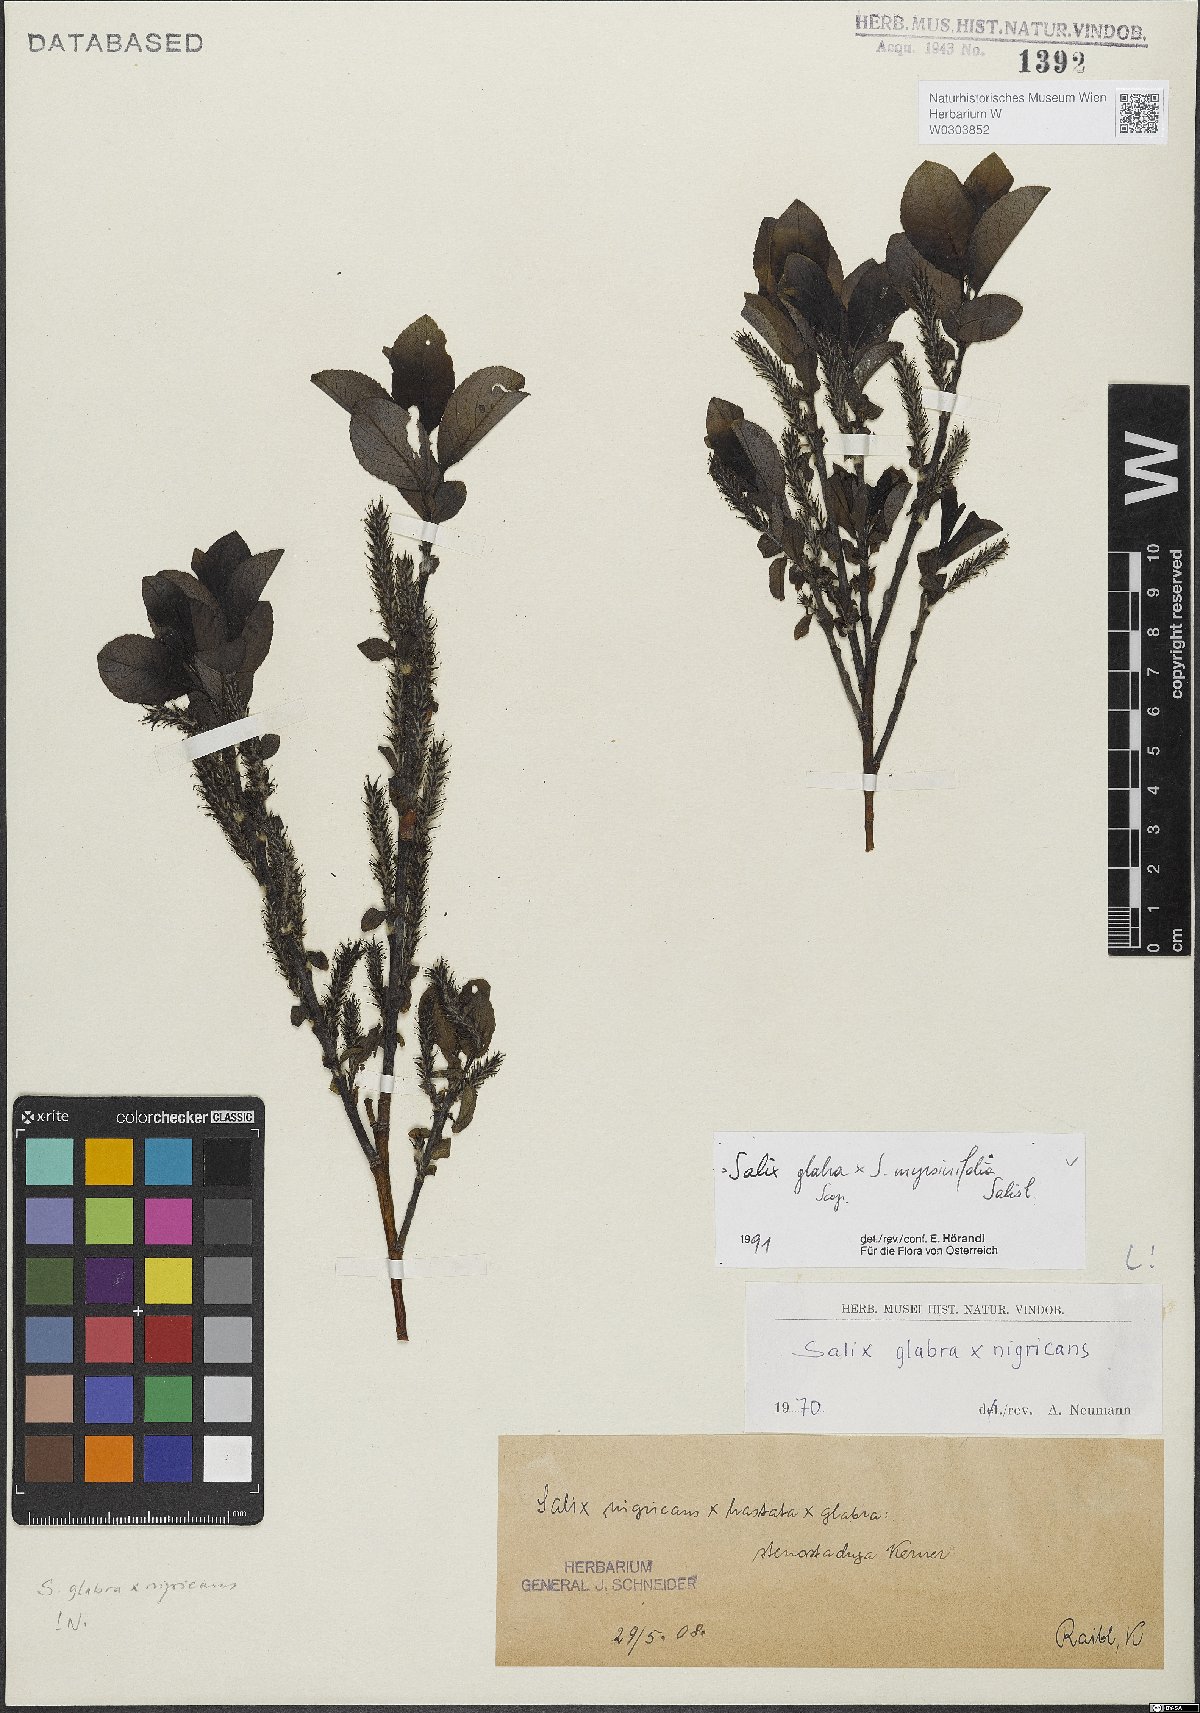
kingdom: Plantae
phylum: Tracheophyta
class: Magnoliopsida
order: Malpighiales
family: Salicaceae
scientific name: Salicaceae
